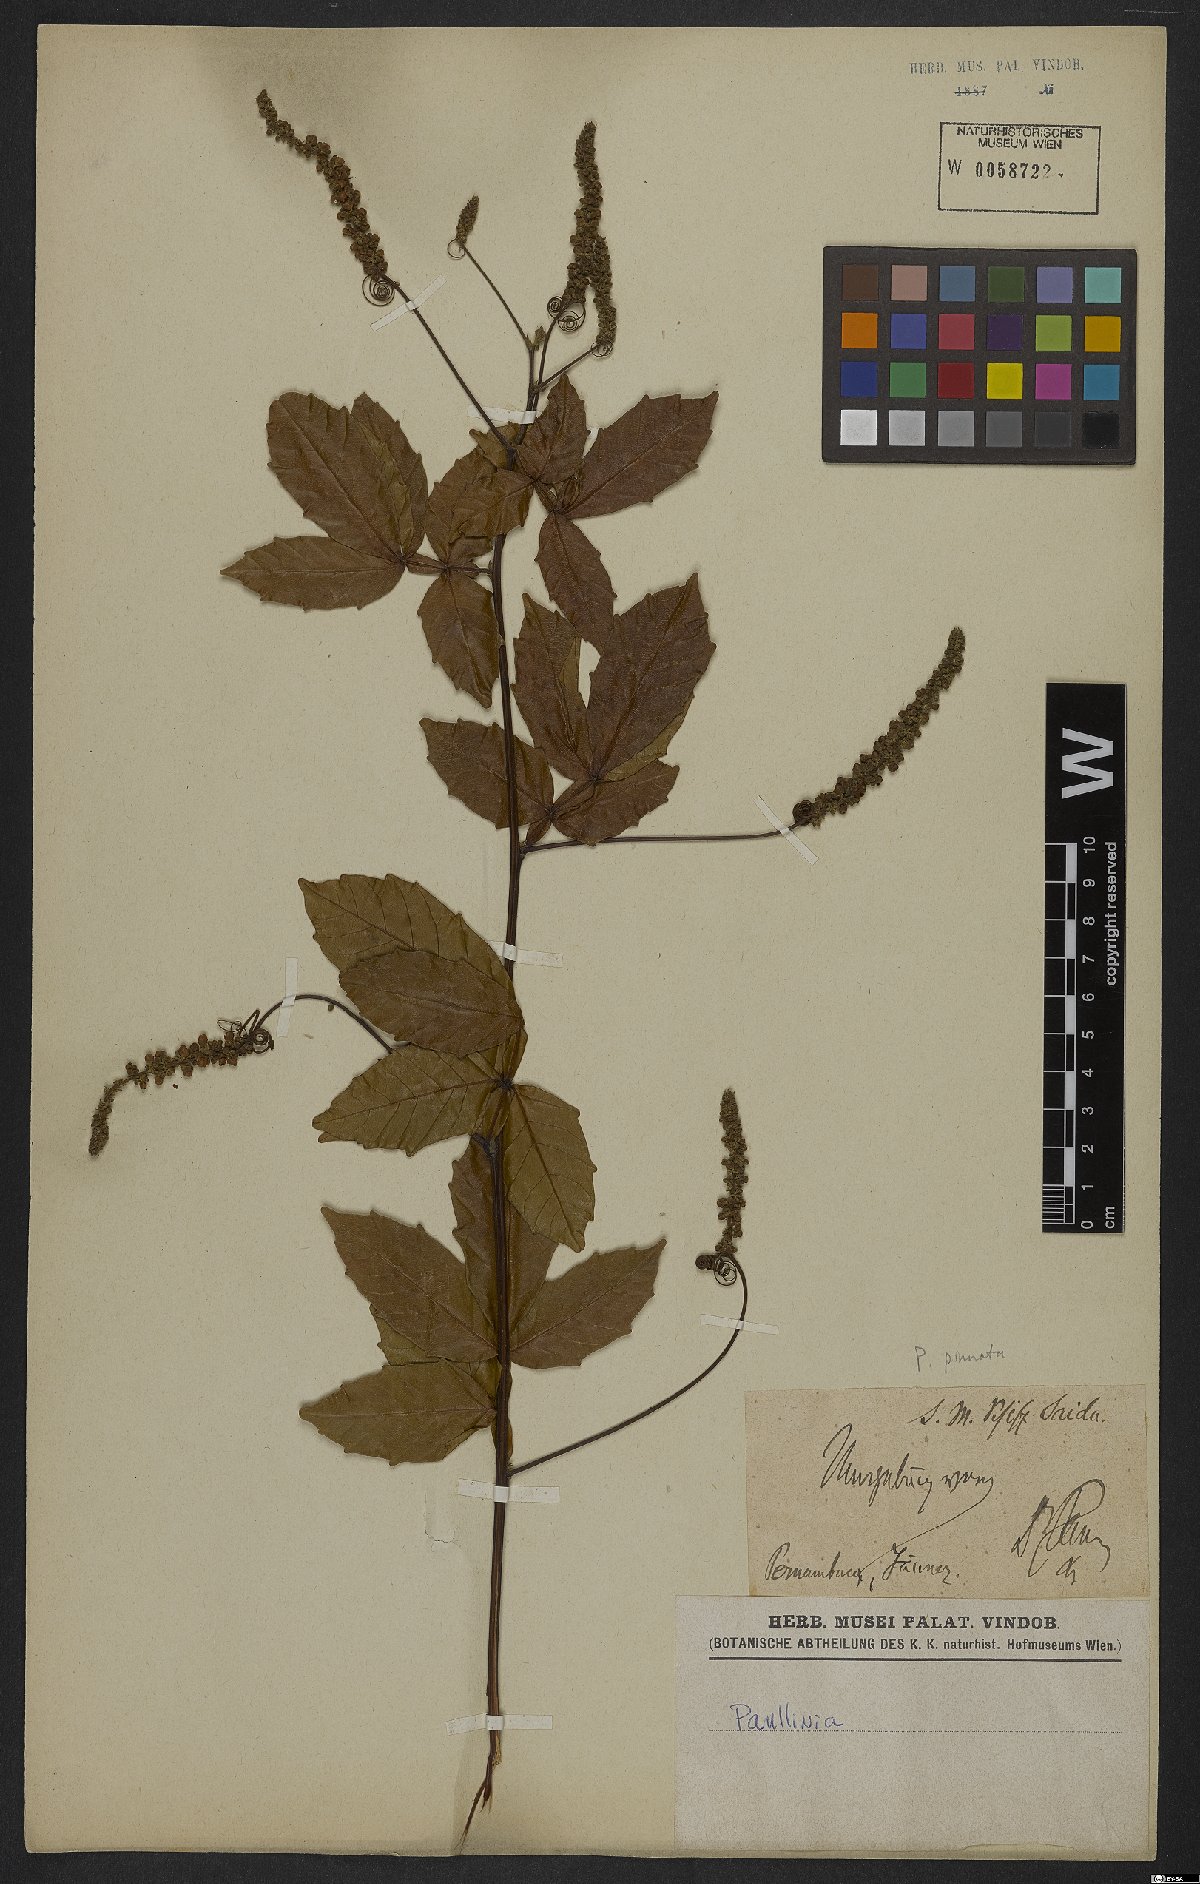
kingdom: Plantae
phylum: Tracheophyta
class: Magnoliopsida
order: Sapindales
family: Sapindaceae
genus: Paullinia
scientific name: Paullinia pinnata
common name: Barbasco
